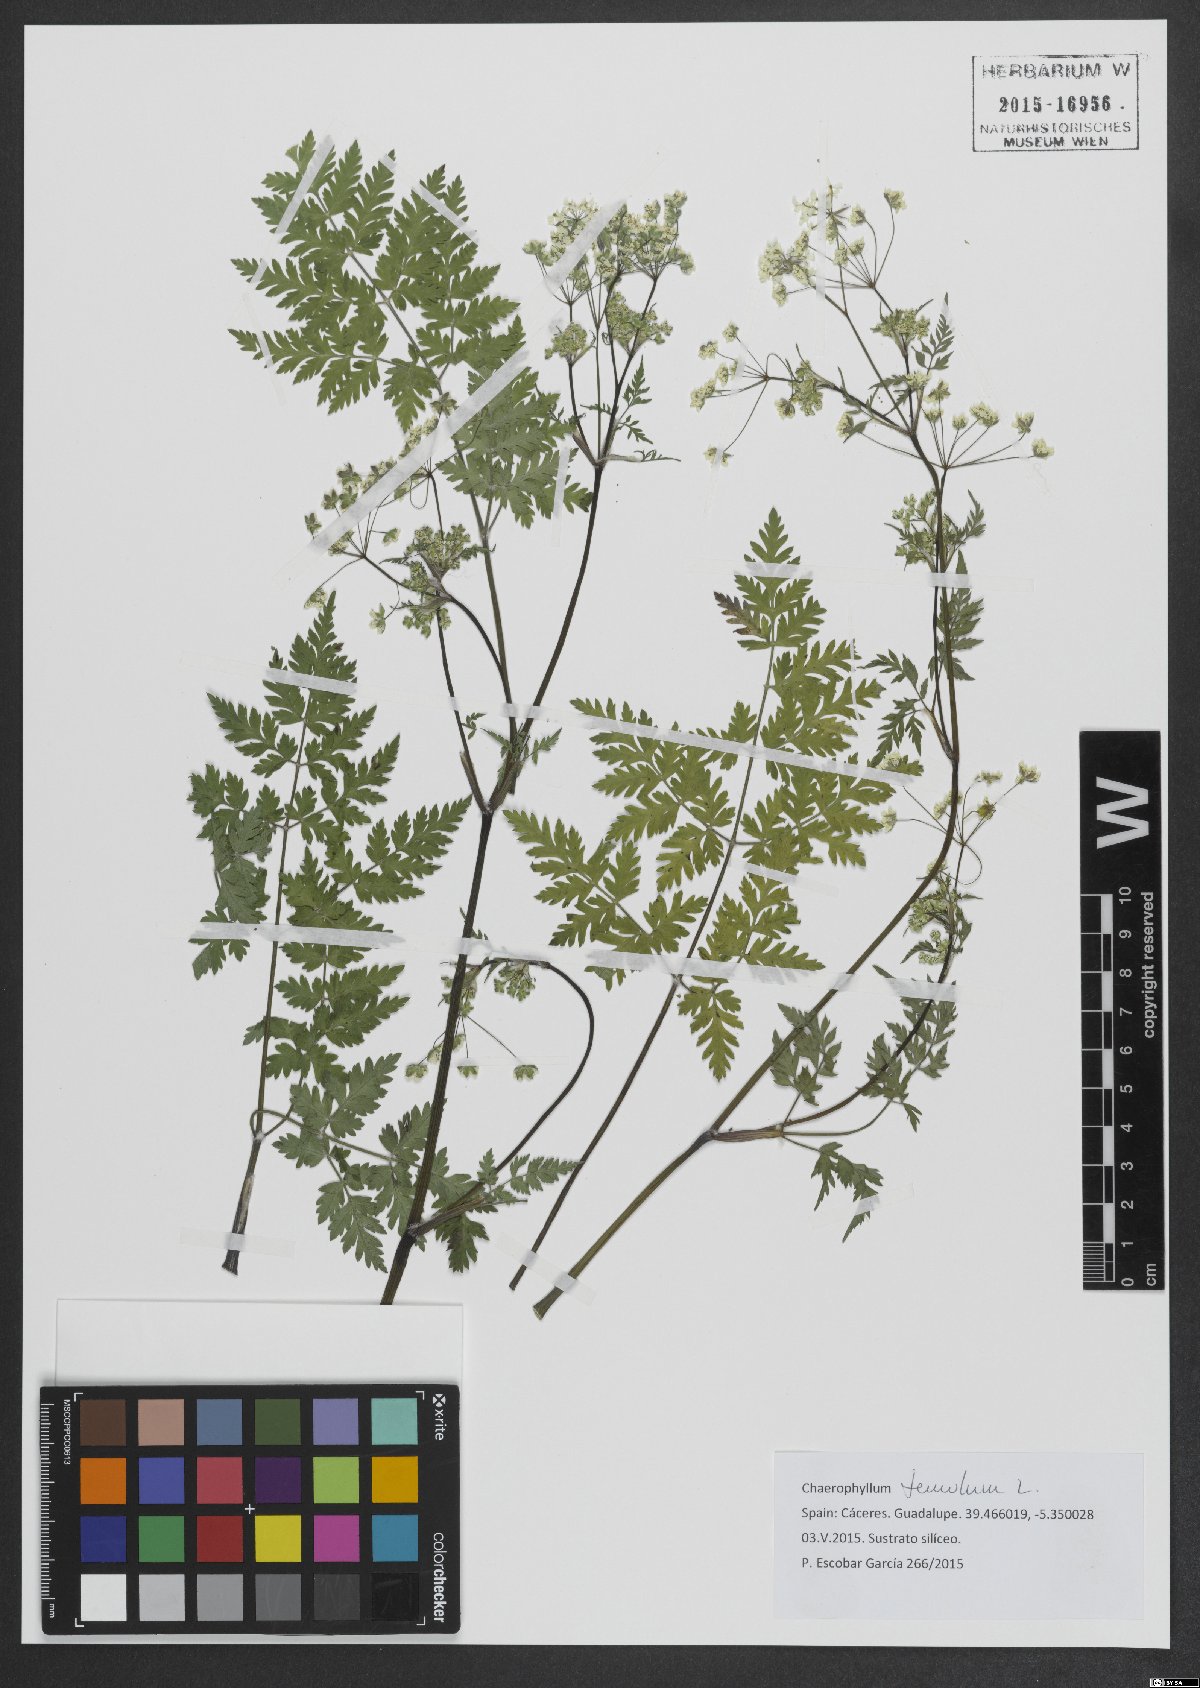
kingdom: Plantae
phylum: Tracheophyta
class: Magnoliopsida
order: Apiales
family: Apiaceae
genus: Chaerophyllum
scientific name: Chaerophyllum temulum
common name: Rough chervil
